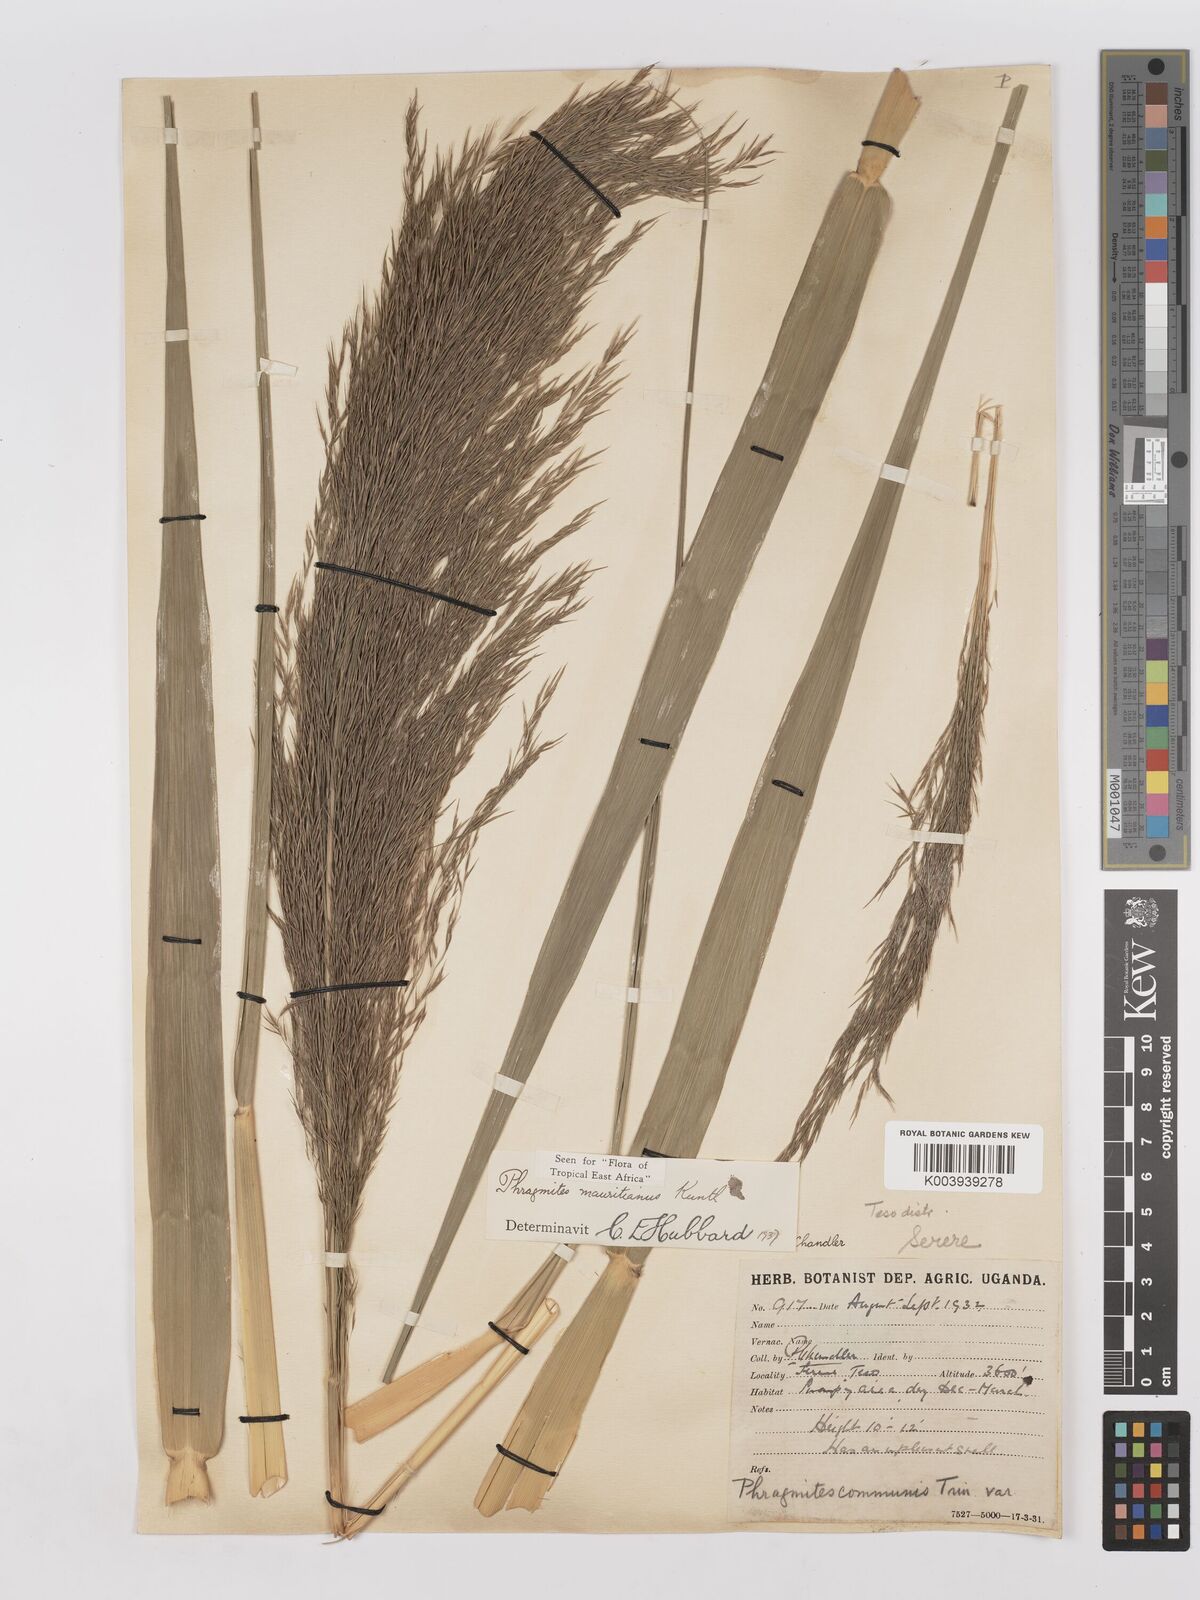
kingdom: Plantae
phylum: Tracheophyta
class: Liliopsida
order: Poales
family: Poaceae
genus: Phragmites
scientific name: Phragmites mauritianus
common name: Reed grass
